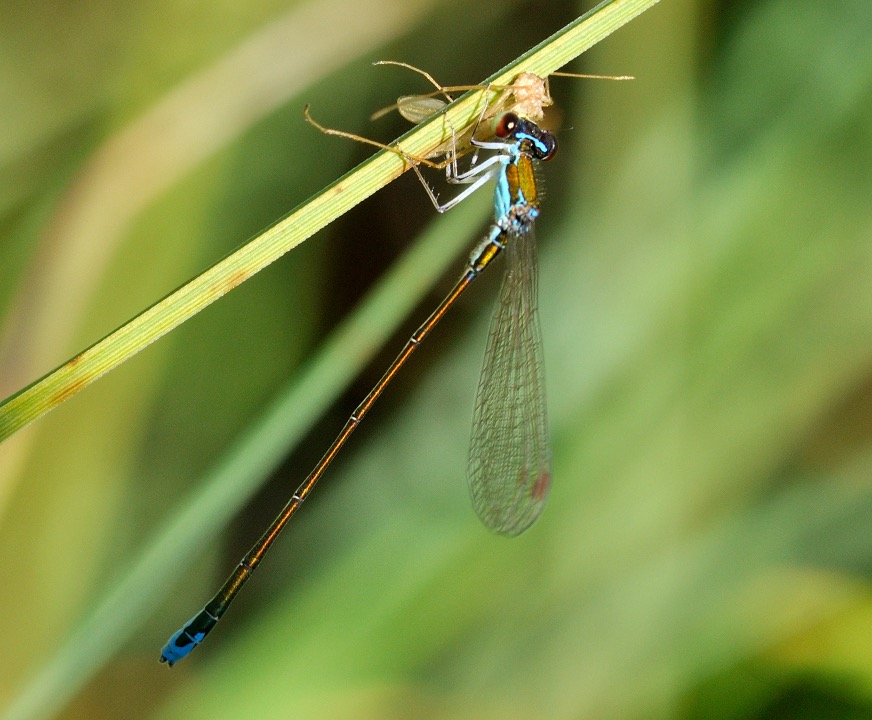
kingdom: Animalia
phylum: Arthropoda
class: Insecta
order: Odonata
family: Coenagrionidae
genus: Nehalennia
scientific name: Nehalennia speciosa
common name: Dværgvandnymfe
